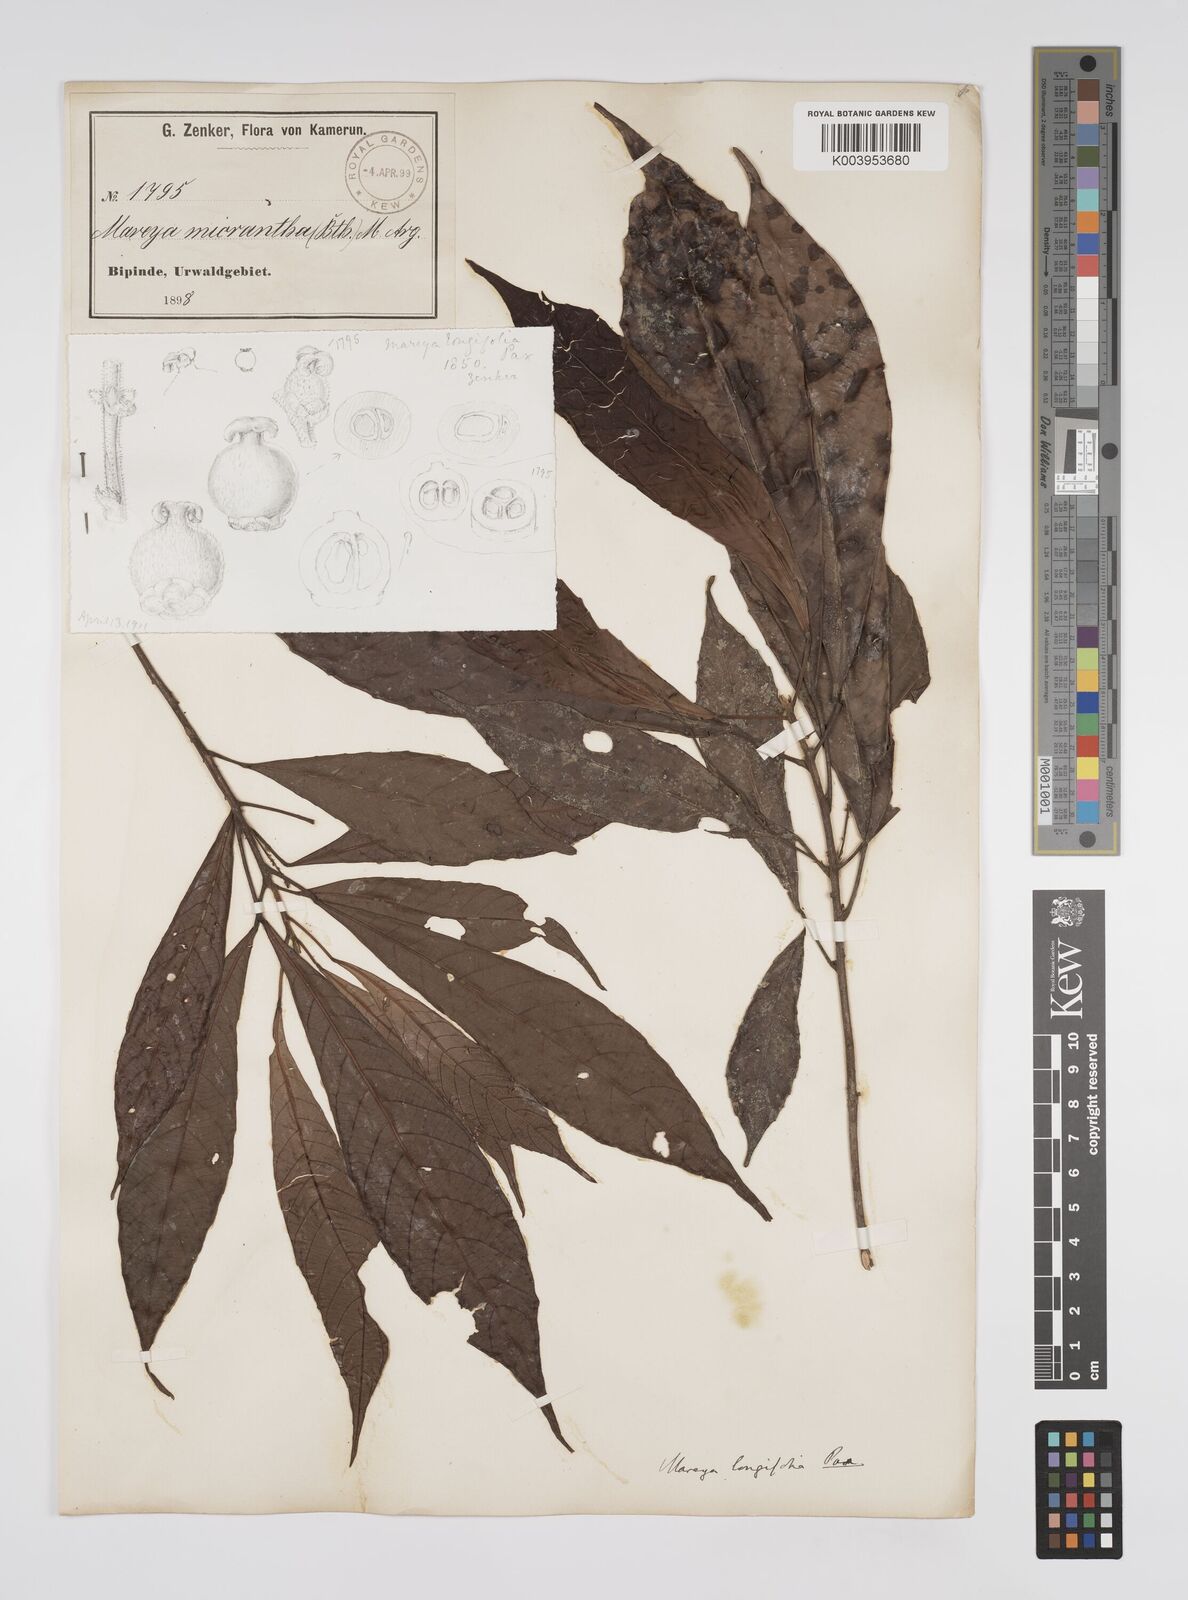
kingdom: Plantae
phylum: Tracheophyta
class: Magnoliopsida
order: Malpighiales
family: Euphorbiaceae
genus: Mareyopsis
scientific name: Mareyopsis longifolia
